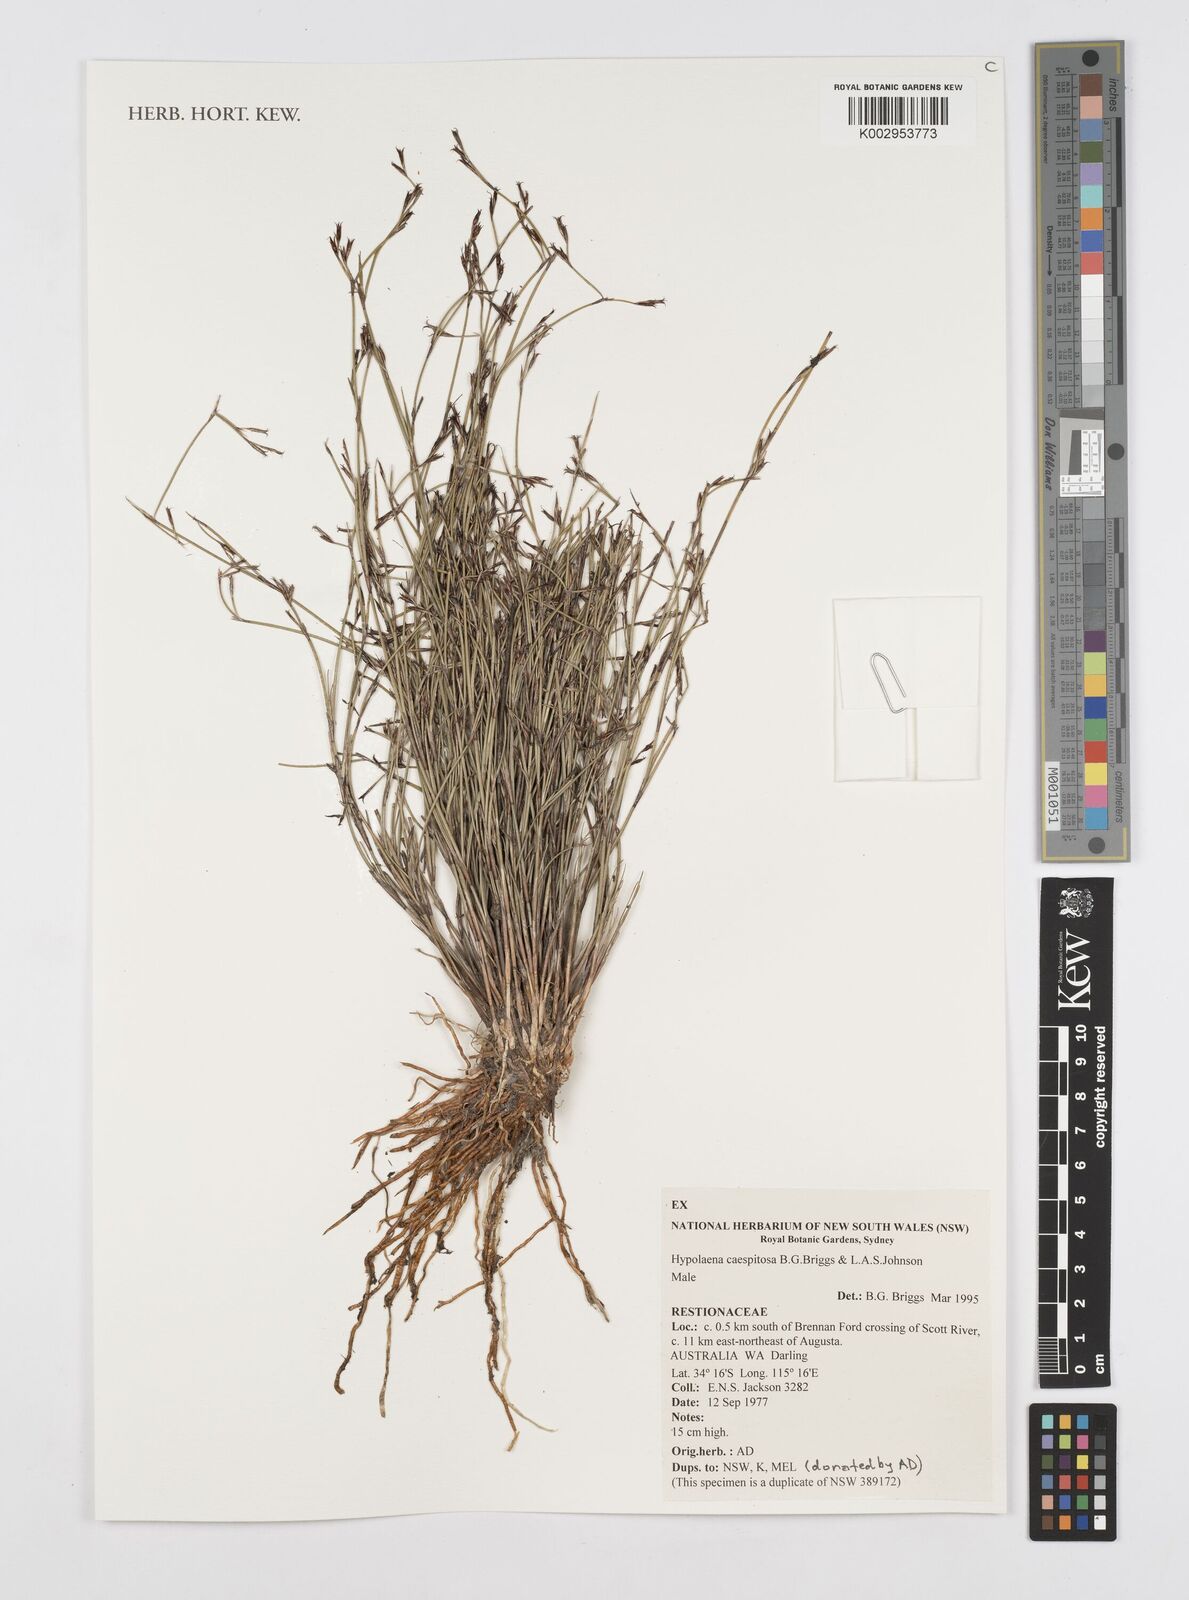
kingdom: Plantae
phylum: Tracheophyta
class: Liliopsida
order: Poales
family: Restionaceae
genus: Hypolaena
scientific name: Hypolaena caespitosa
